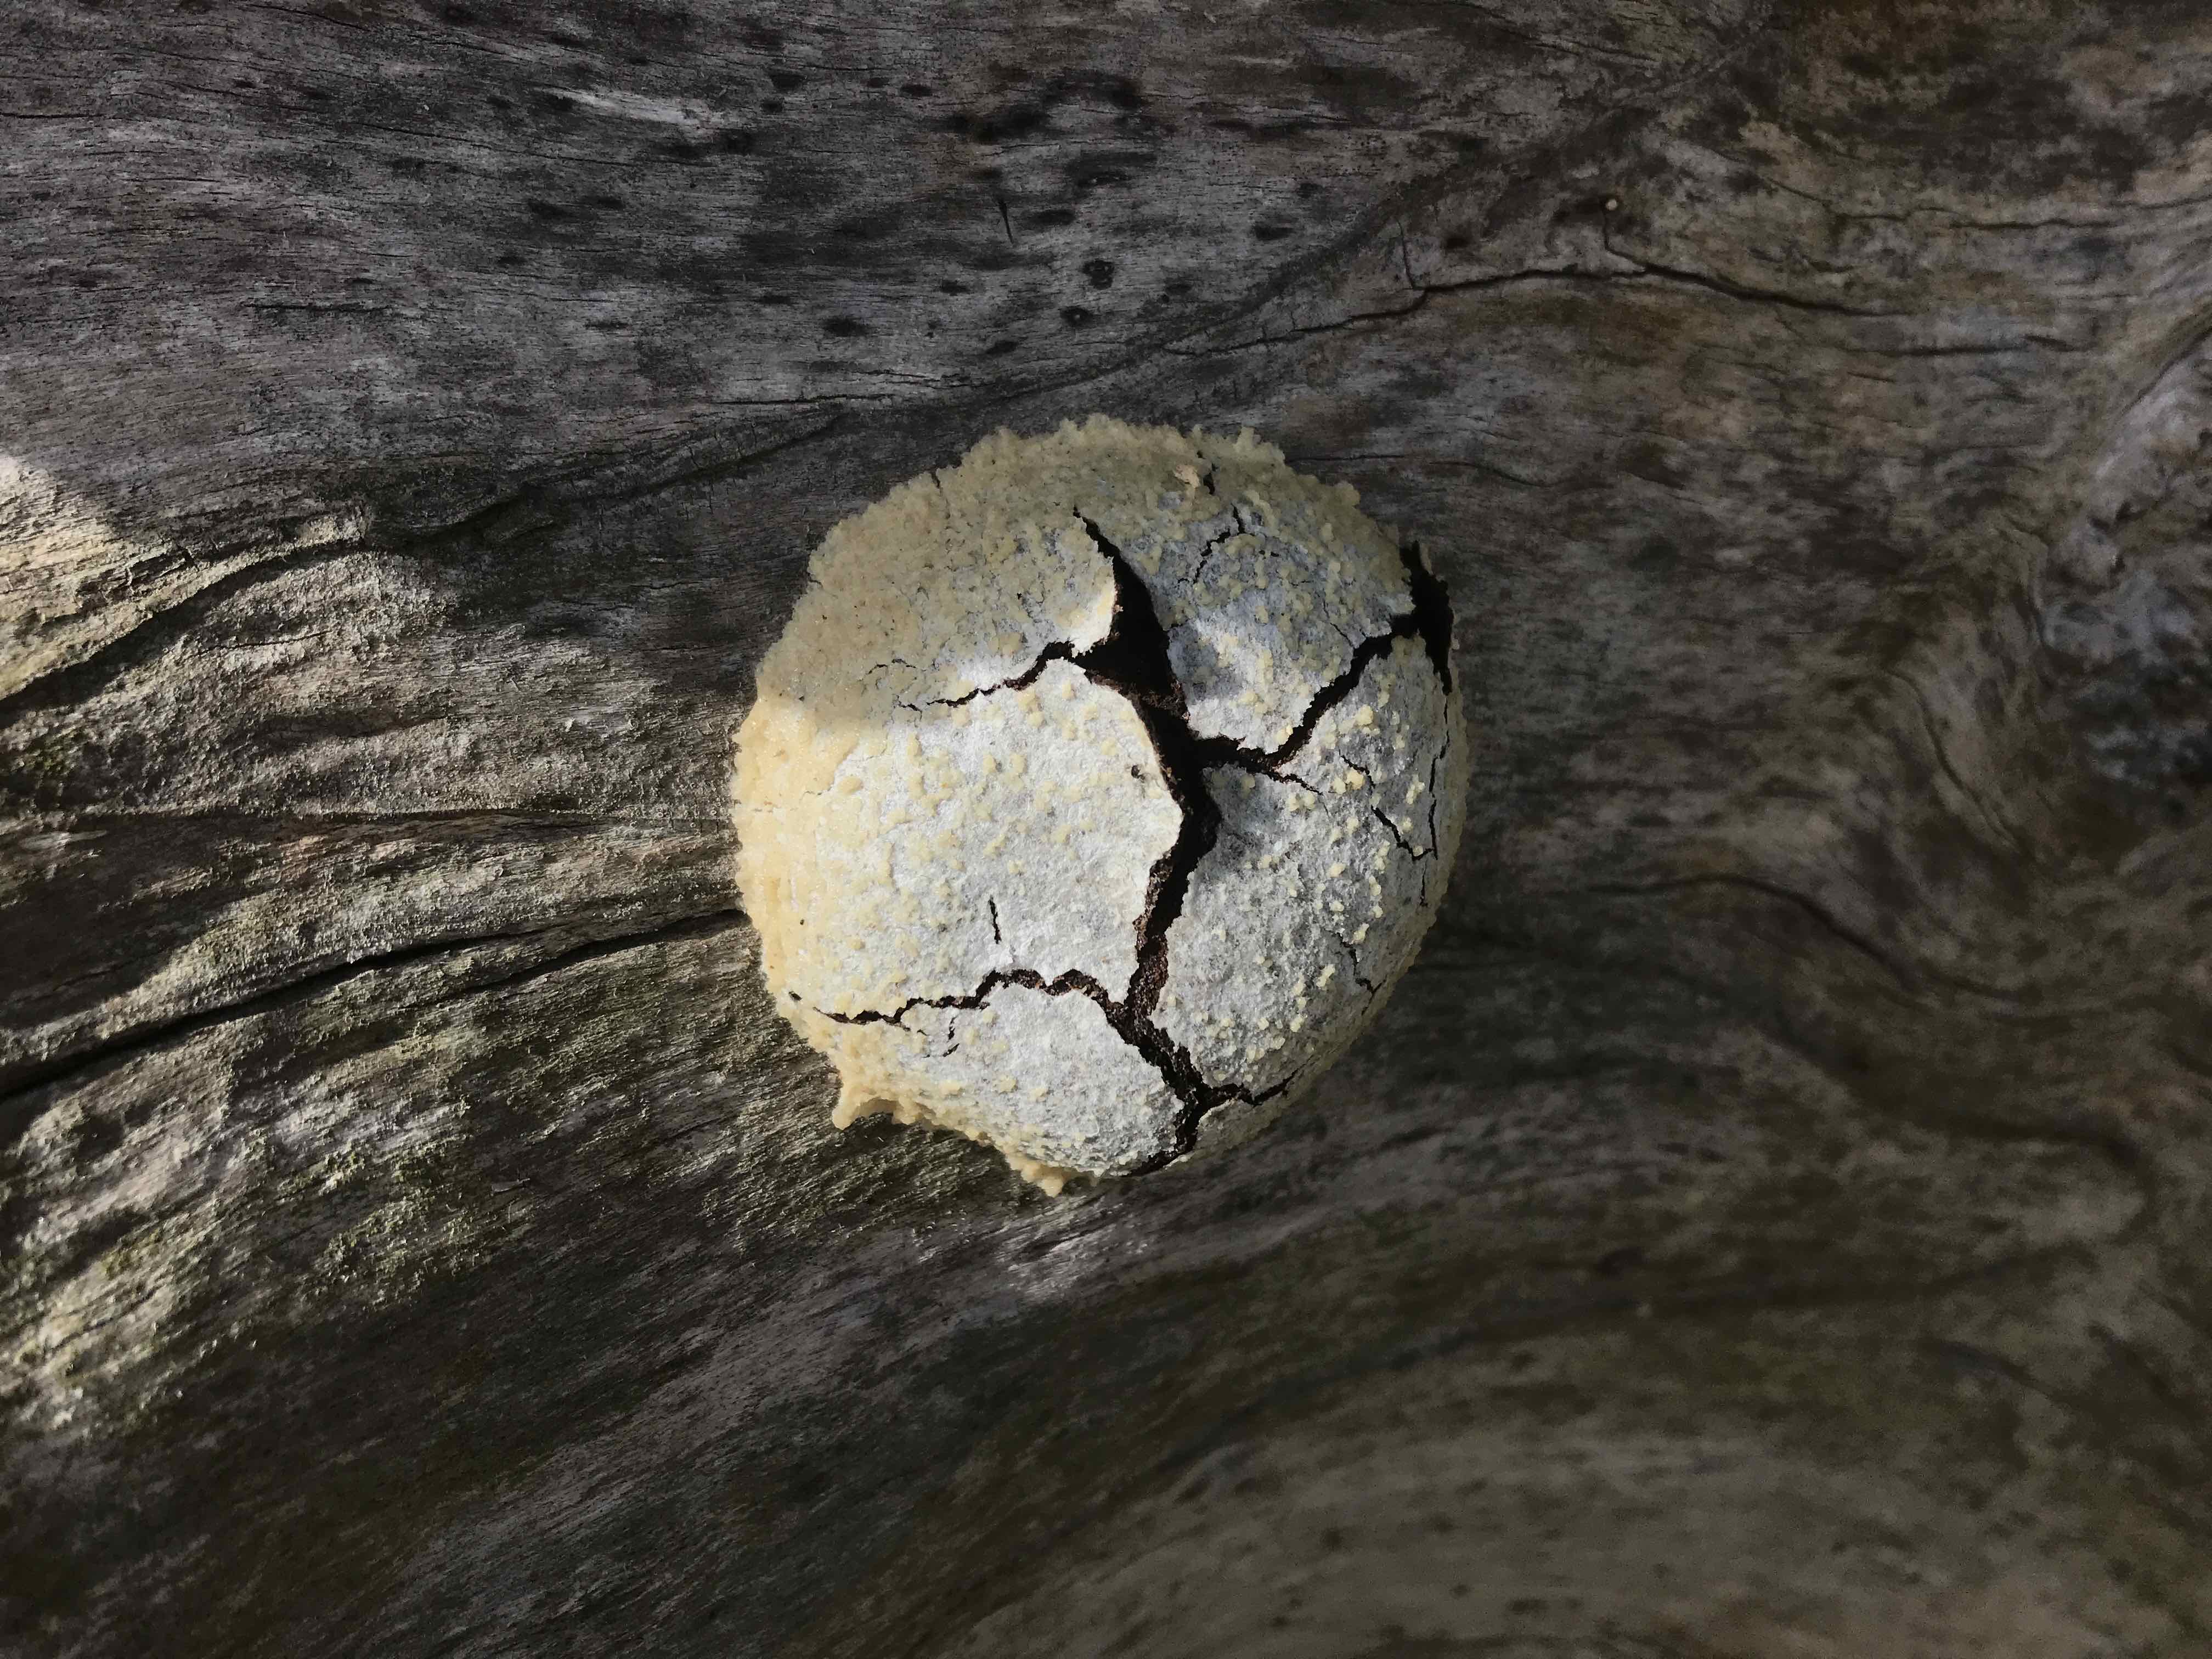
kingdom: Protozoa
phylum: Mycetozoa
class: Myxomycetes
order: Cribrariales
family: Tubiferaceae
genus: Reticularia
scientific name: Reticularia lycoperdon
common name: skinnende støvpude
